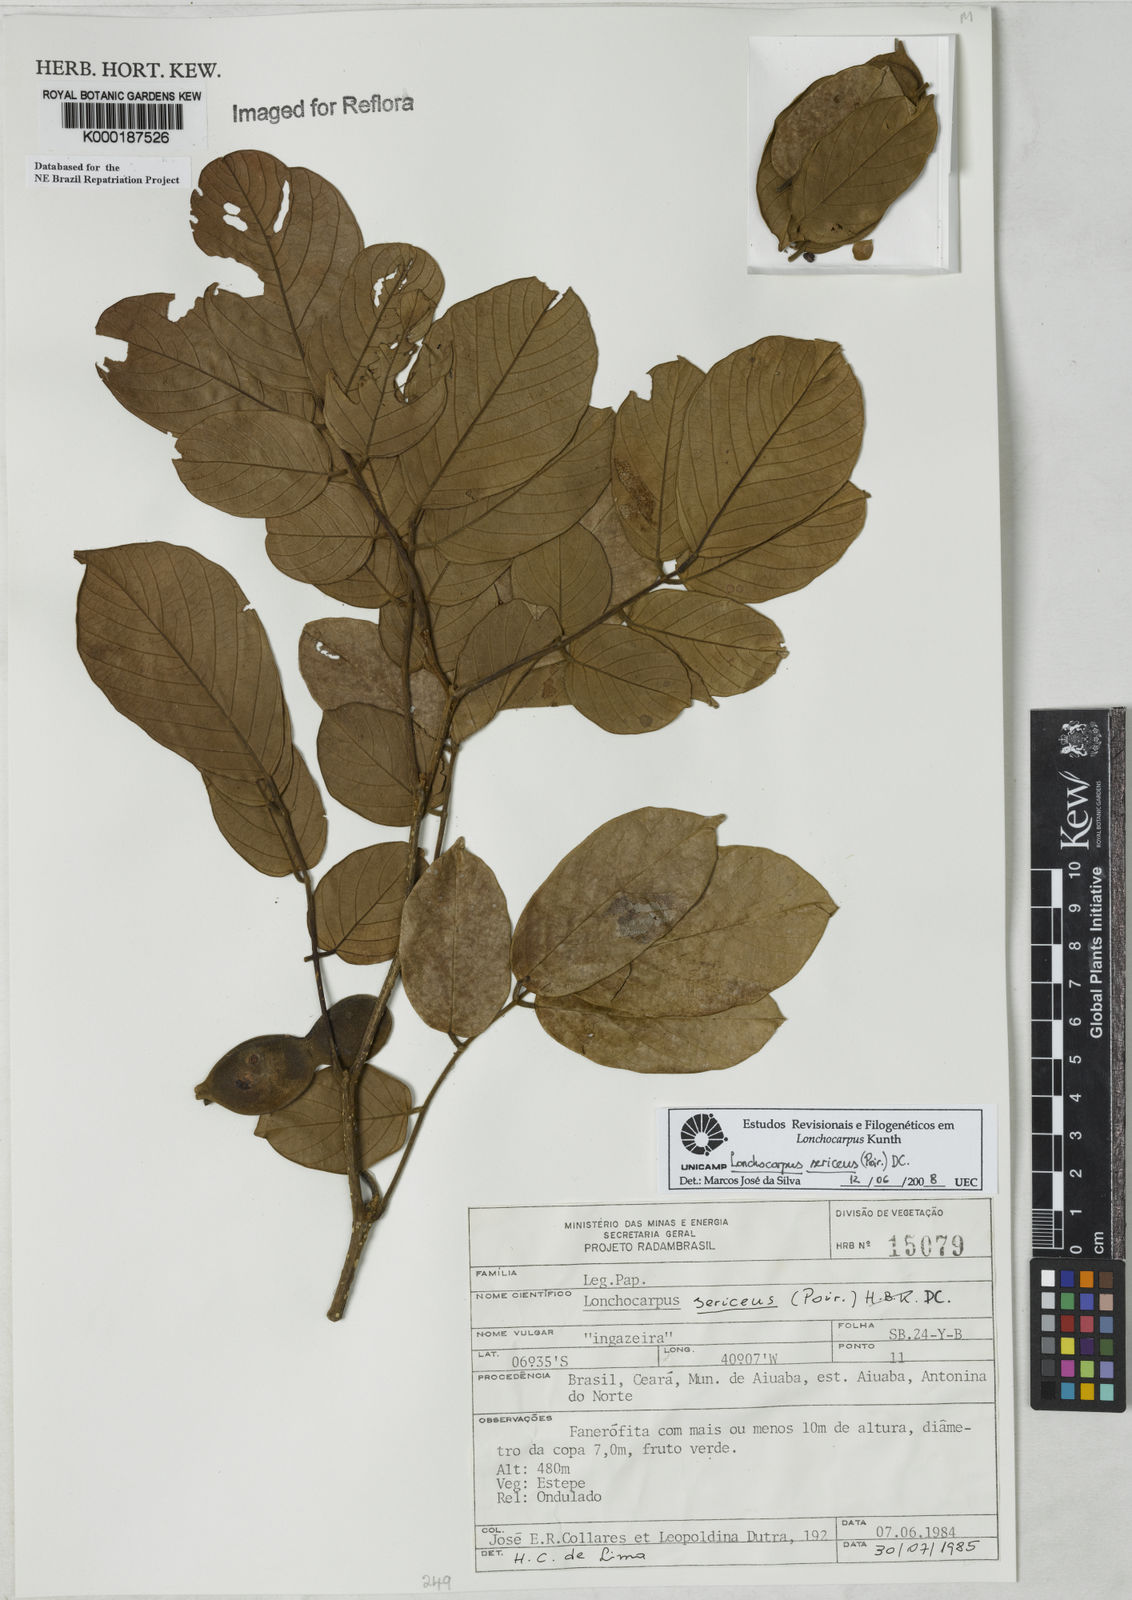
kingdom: Plantae
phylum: Tracheophyta
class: Magnoliopsida
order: Fabales
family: Fabaceae
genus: Lonchocarpus
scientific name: Lonchocarpus sericeus
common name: Savonette
